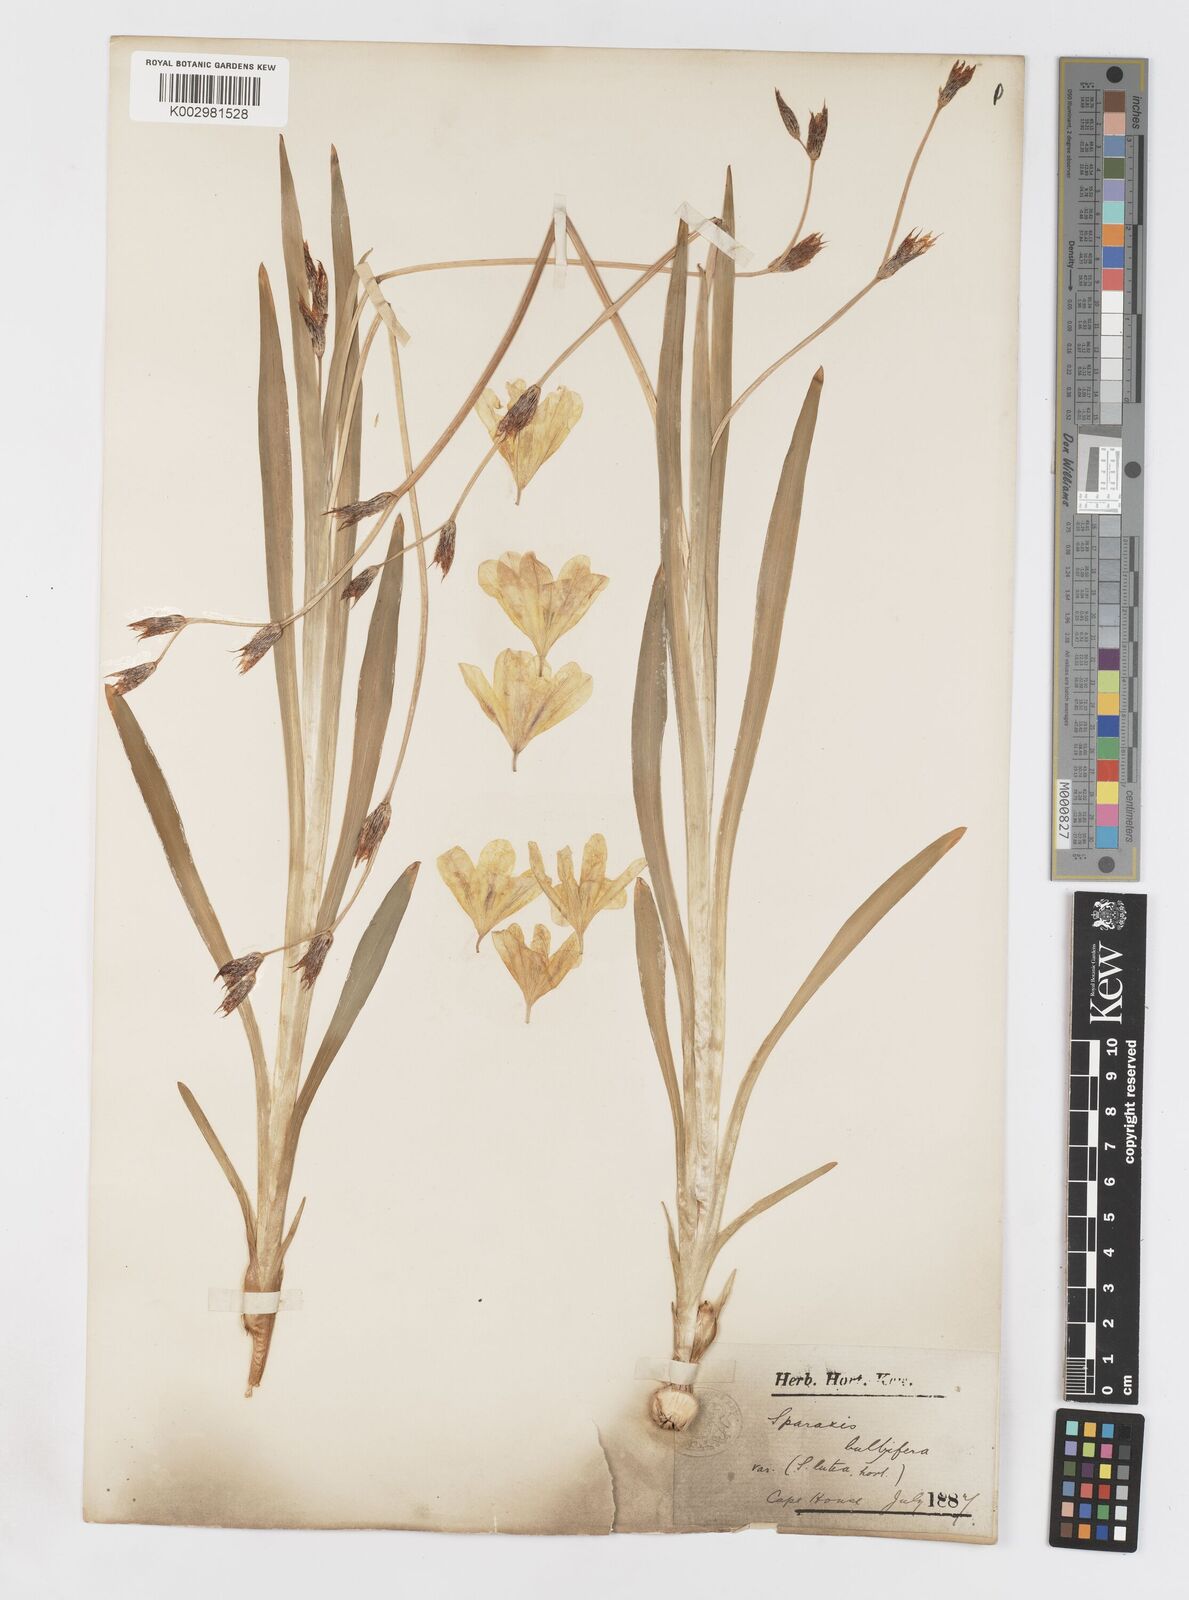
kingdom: Plantae
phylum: Tracheophyta
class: Liliopsida
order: Asparagales
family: Iridaceae
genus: Sparaxis
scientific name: Sparaxis bulbifera
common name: Harlequin-flower
